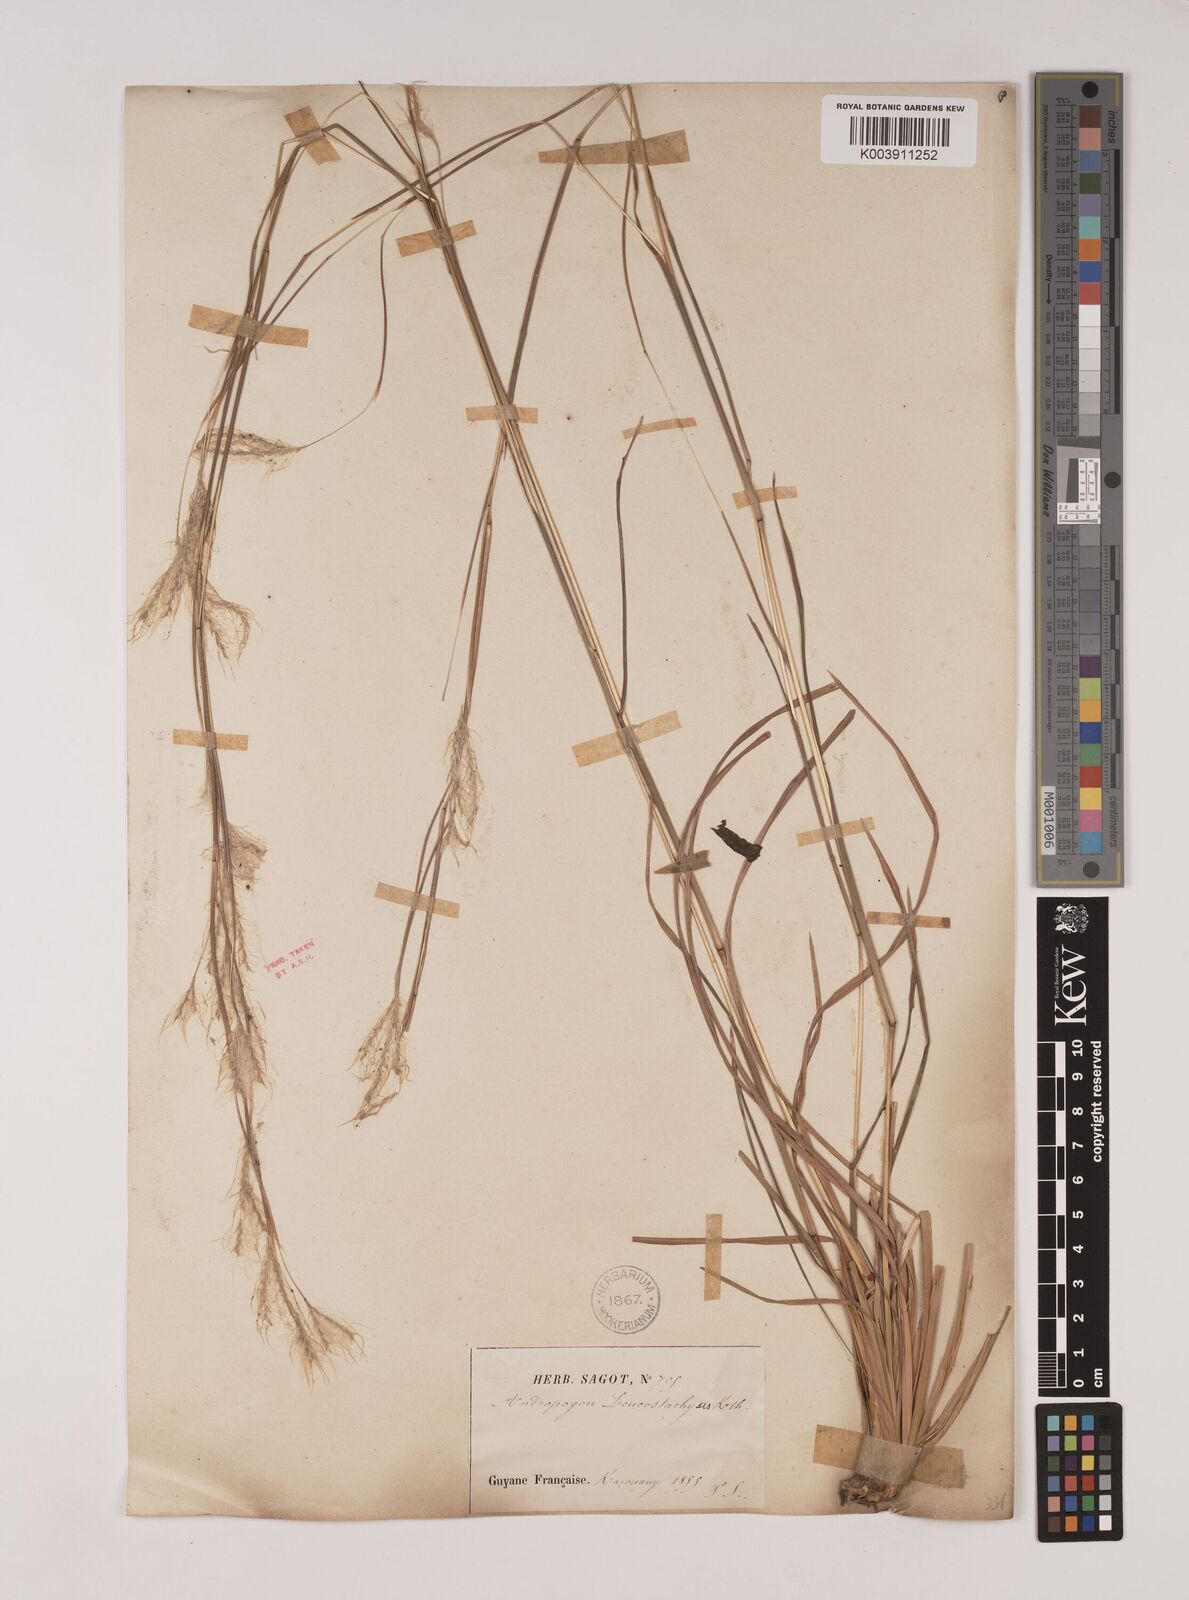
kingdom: Plantae
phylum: Tracheophyta
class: Liliopsida
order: Poales
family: Poaceae
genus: Andropogon
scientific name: Andropogon leucostachyus
